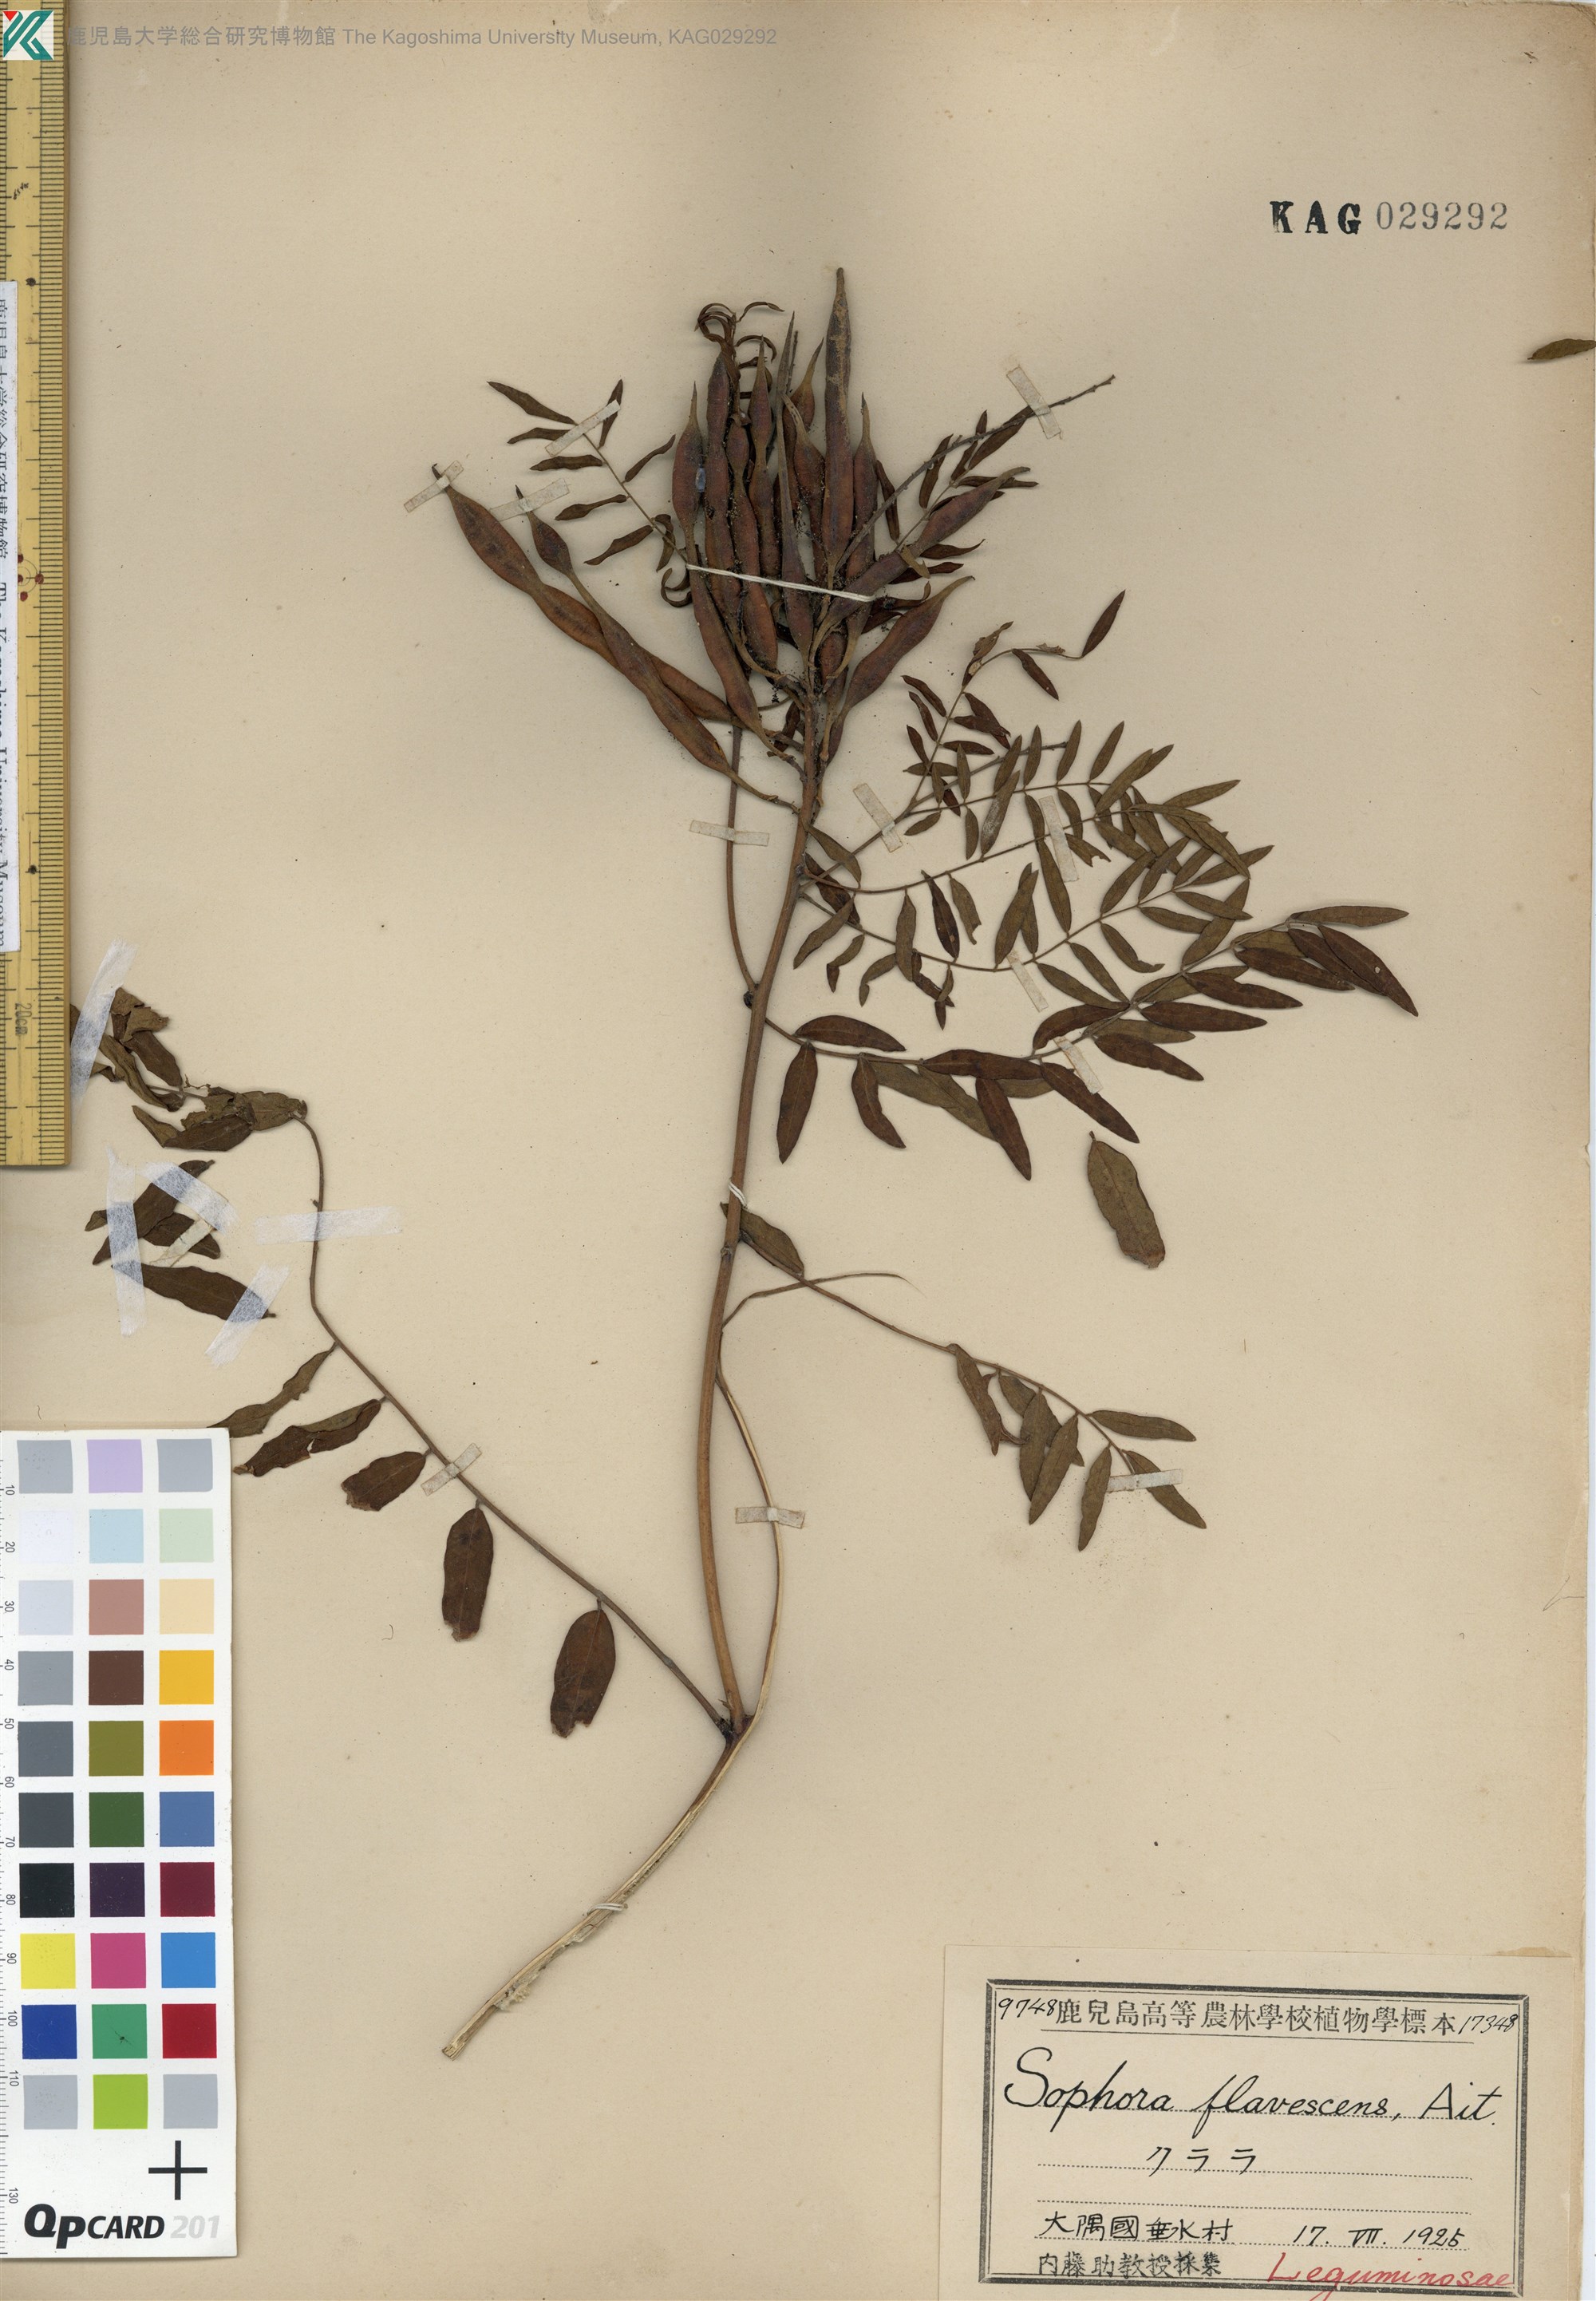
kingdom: Plantae
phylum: Tracheophyta
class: Magnoliopsida
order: Fabales
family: Fabaceae
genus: Sophora
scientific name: Sophora flavescens
